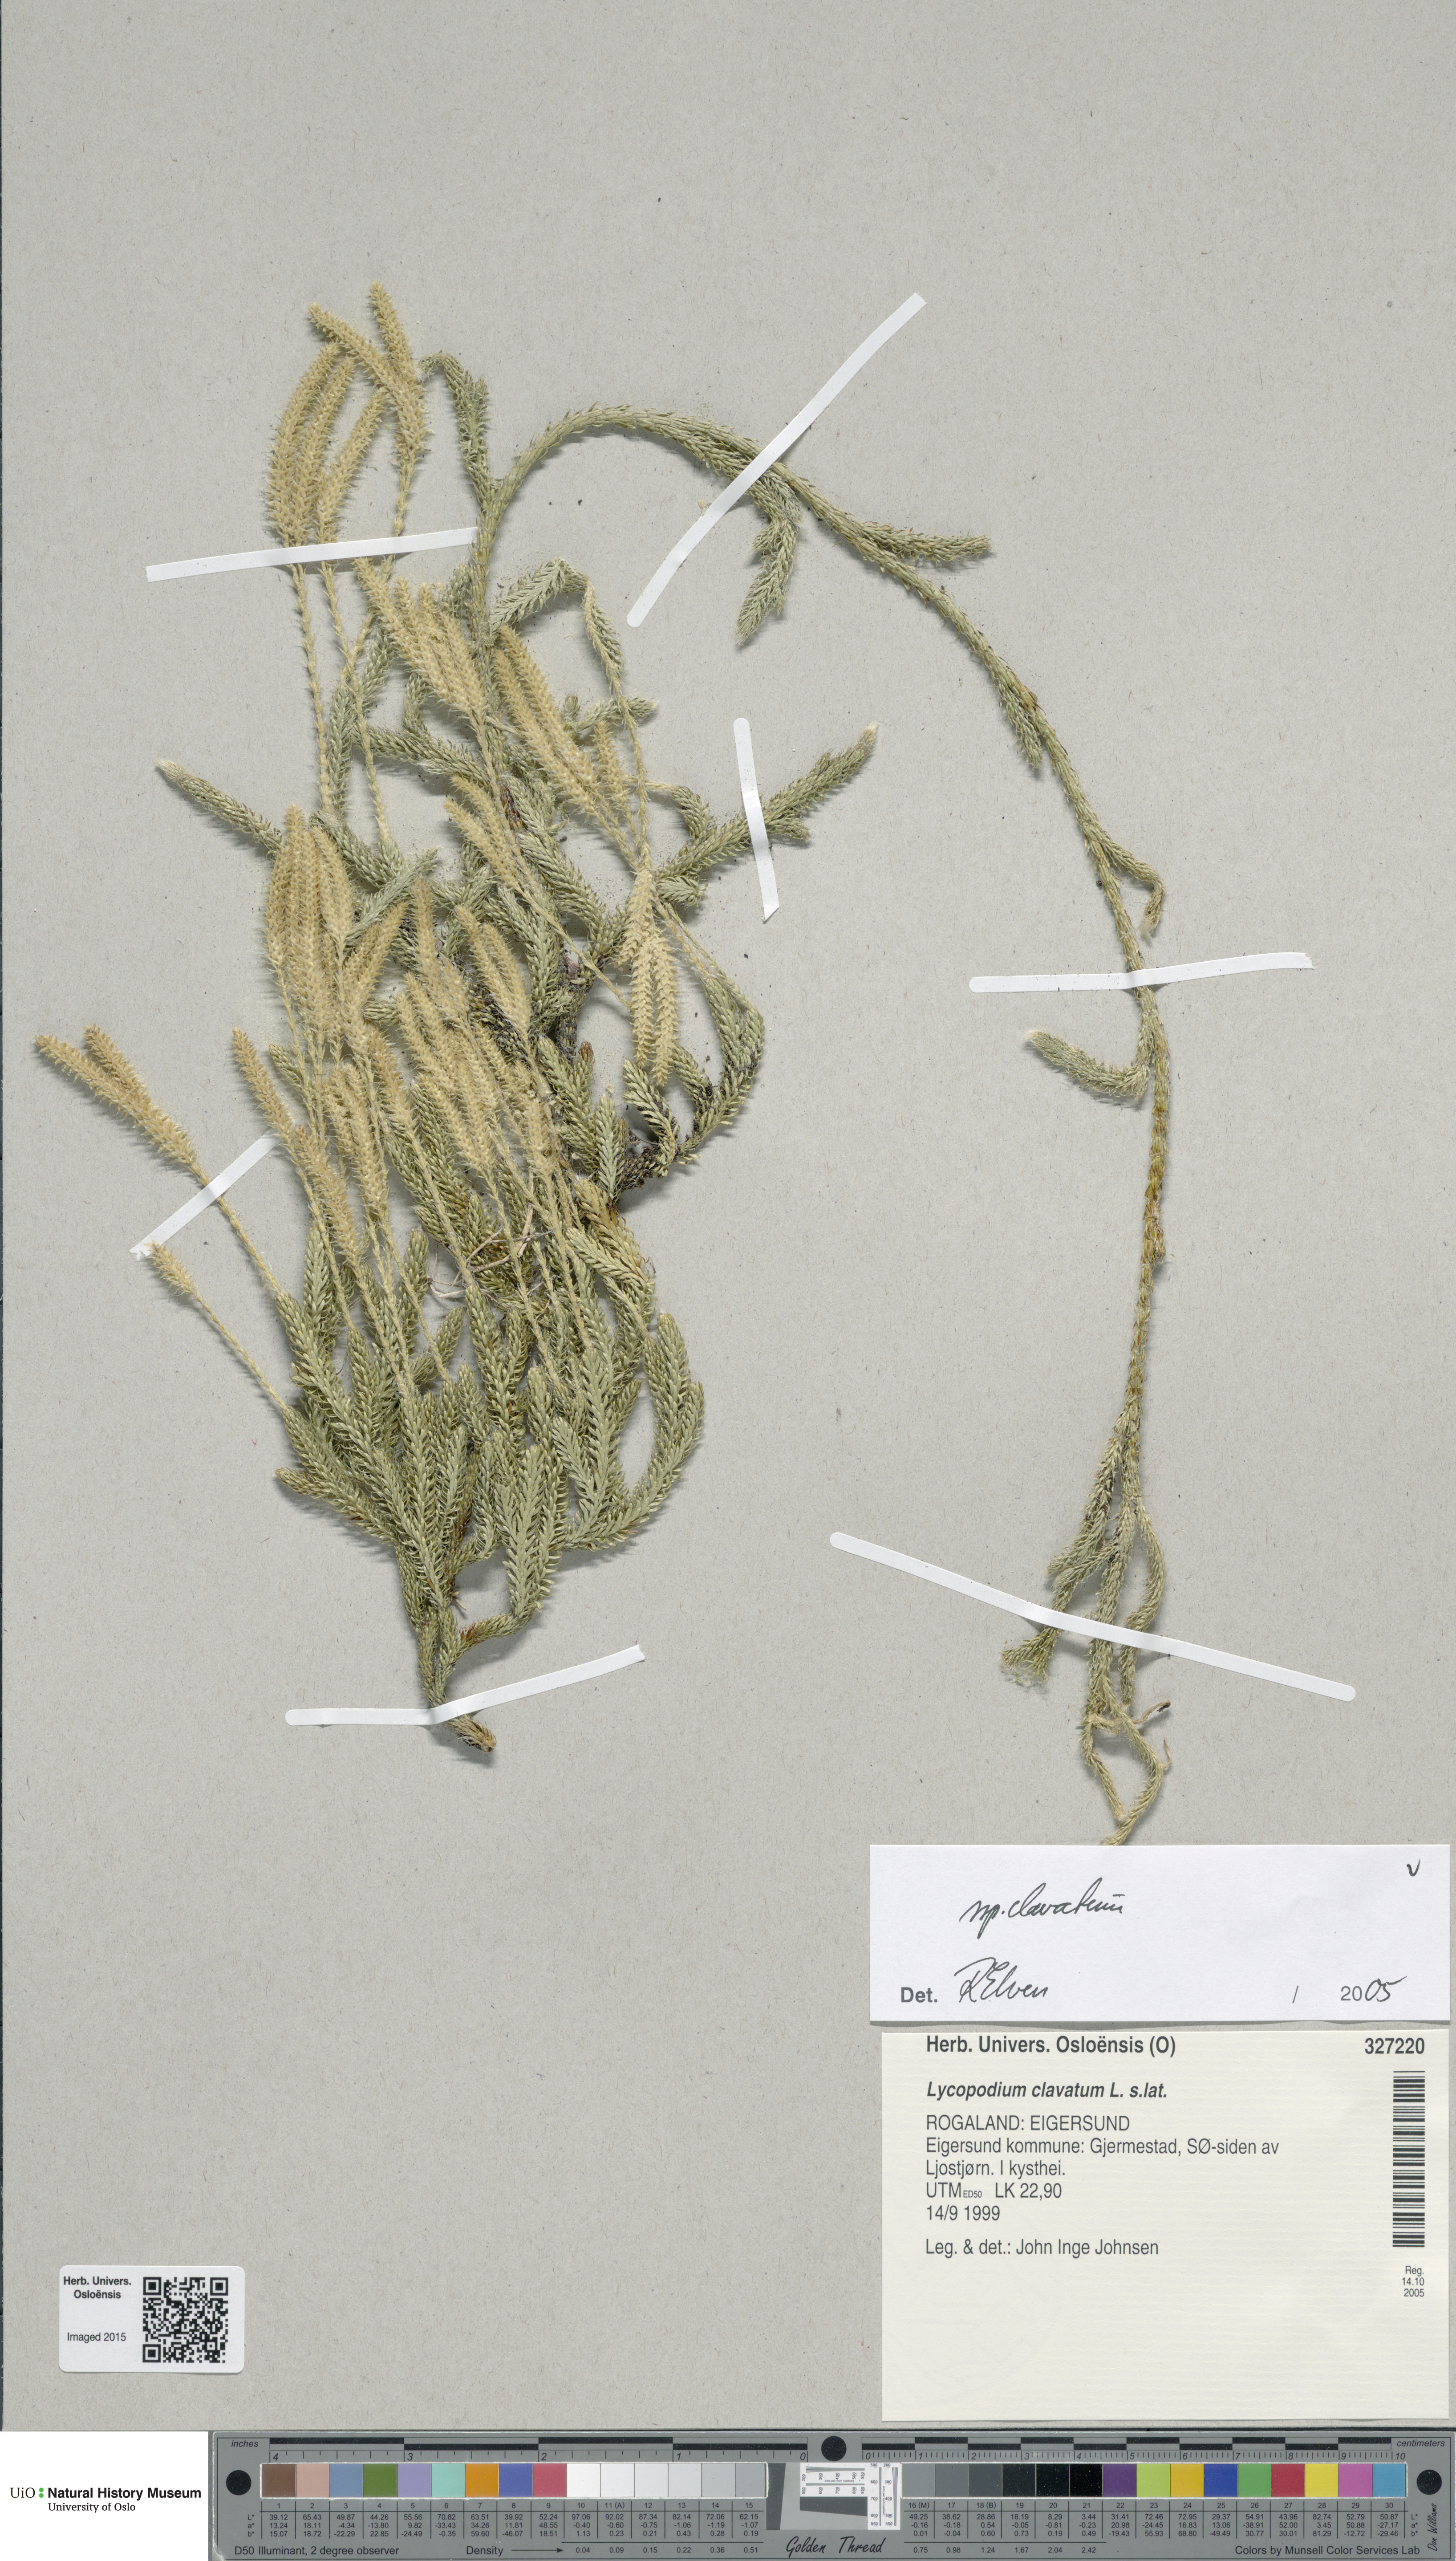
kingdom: Plantae
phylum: Tracheophyta
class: Lycopodiopsida
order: Lycopodiales
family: Lycopodiaceae
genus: Lycopodium
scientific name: Lycopodium clavatum
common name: Stag's-horn clubmoss
